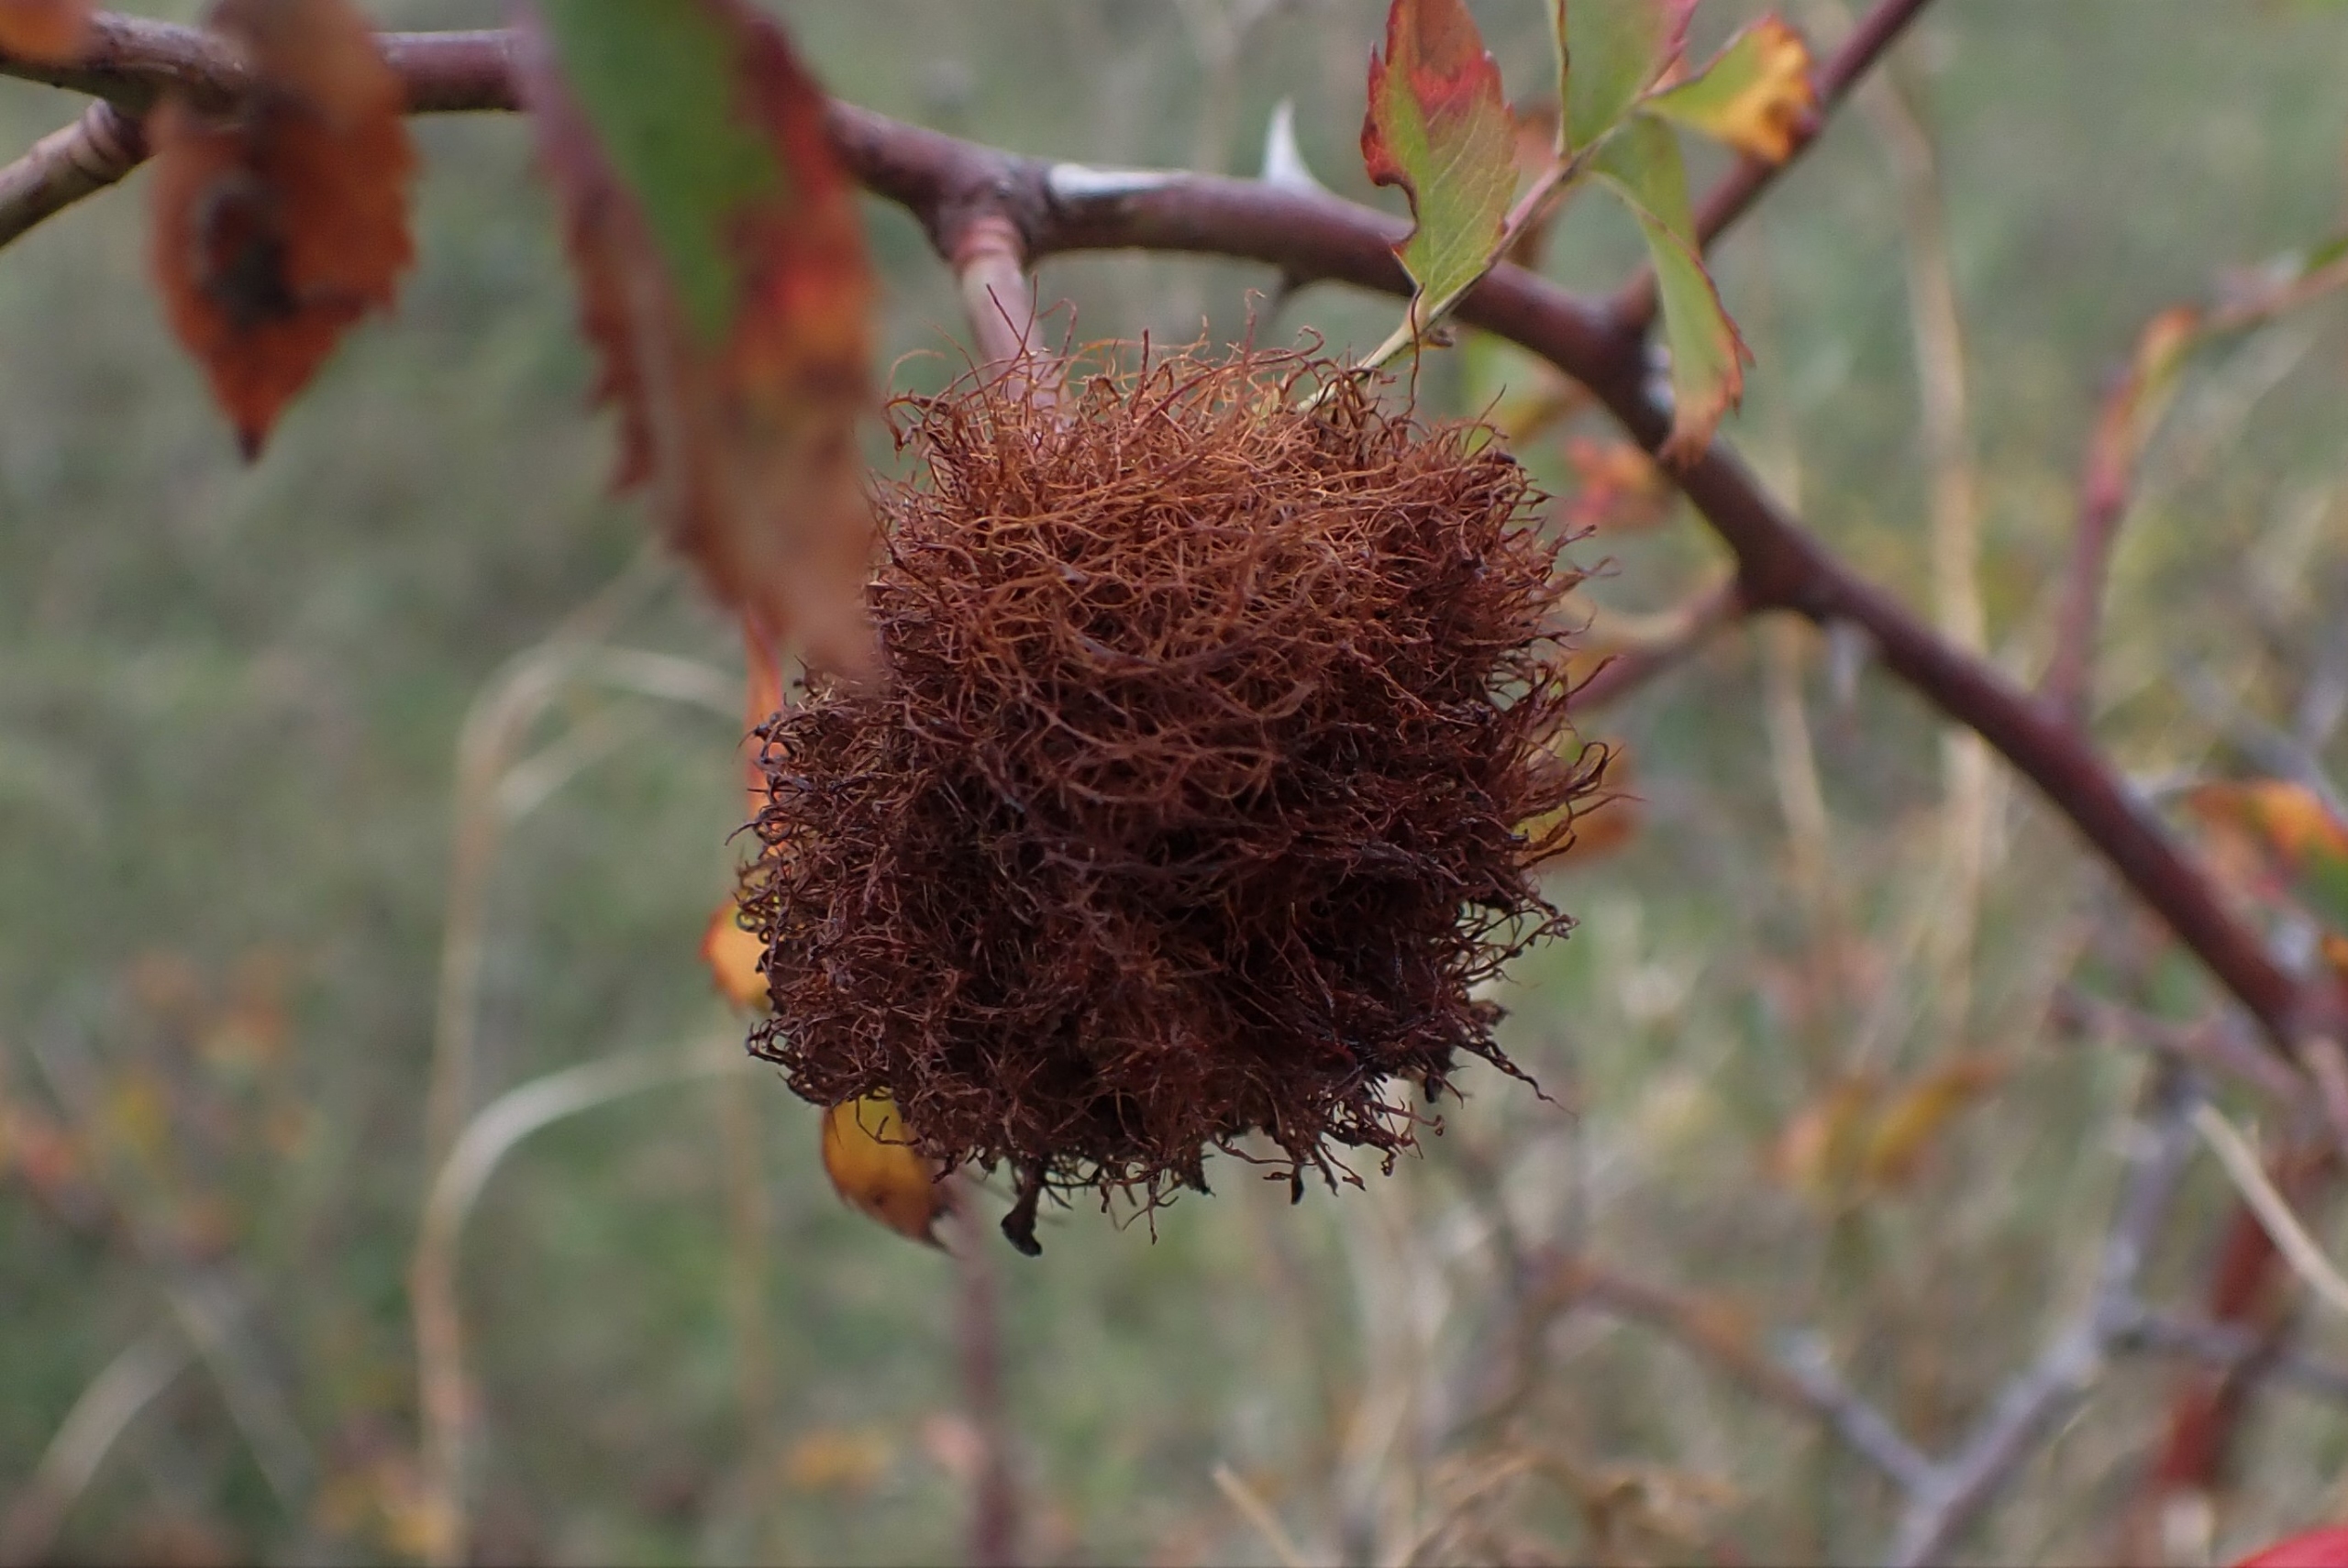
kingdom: Animalia
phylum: Arthropoda
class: Insecta
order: Hymenoptera
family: Cynipidae
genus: Diplolepis
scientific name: Diplolepis rosae
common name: Bedeguargalhveps
